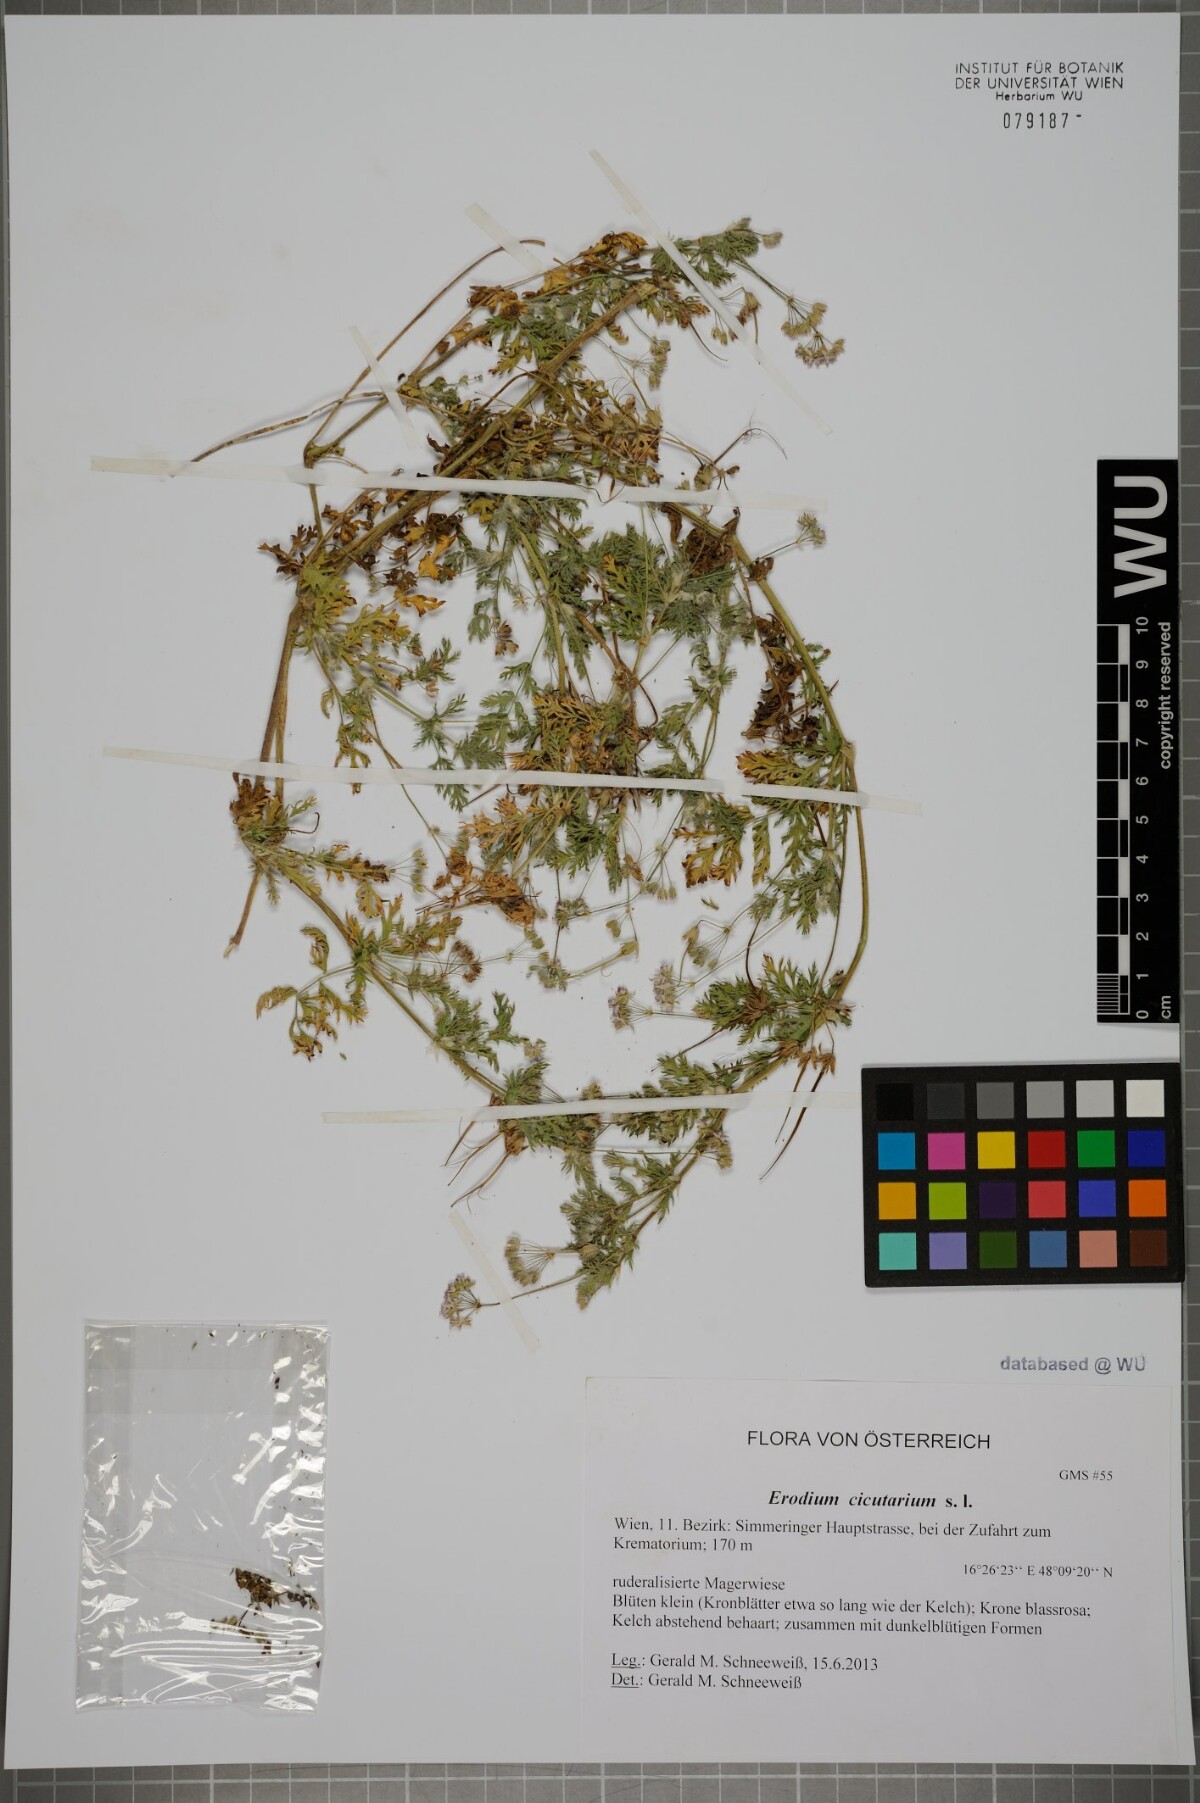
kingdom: Plantae
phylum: Tracheophyta
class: Magnoliopsida
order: Geraniales
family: Geraniaceae
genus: Erodium
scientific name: Erodium cicutarium
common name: Common stork's-bill
